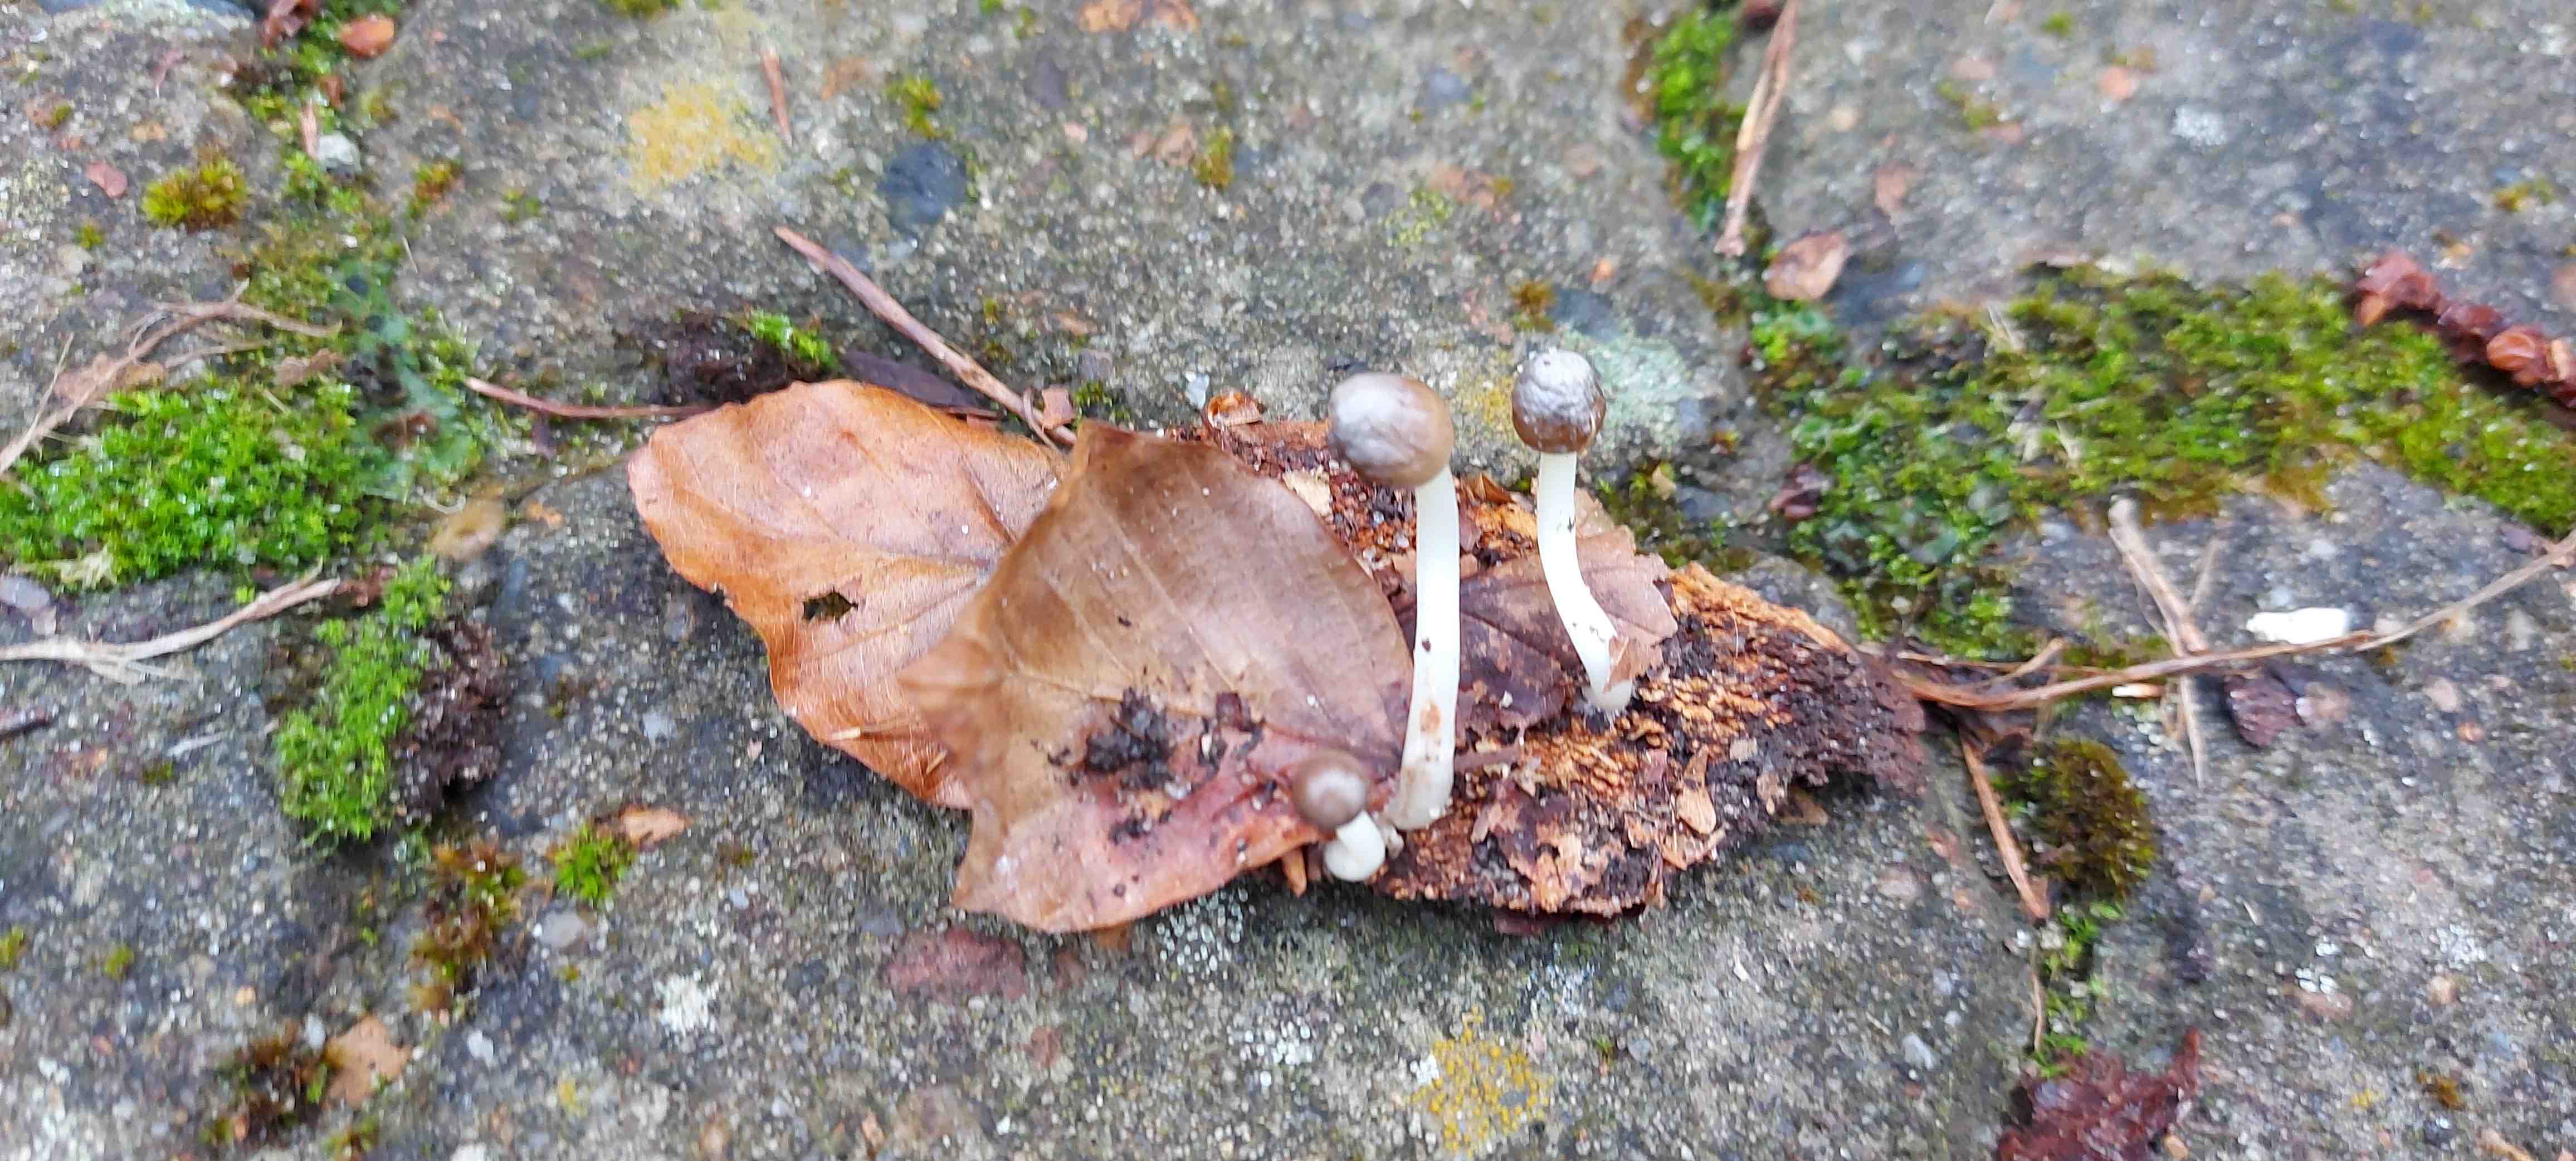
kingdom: Fungi
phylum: Basidiomycota
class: Agaricomycetes
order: Agaricales
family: Mycenaceae
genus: Mycena
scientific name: Mycena epipterygia
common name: gulstokket huesvamp
